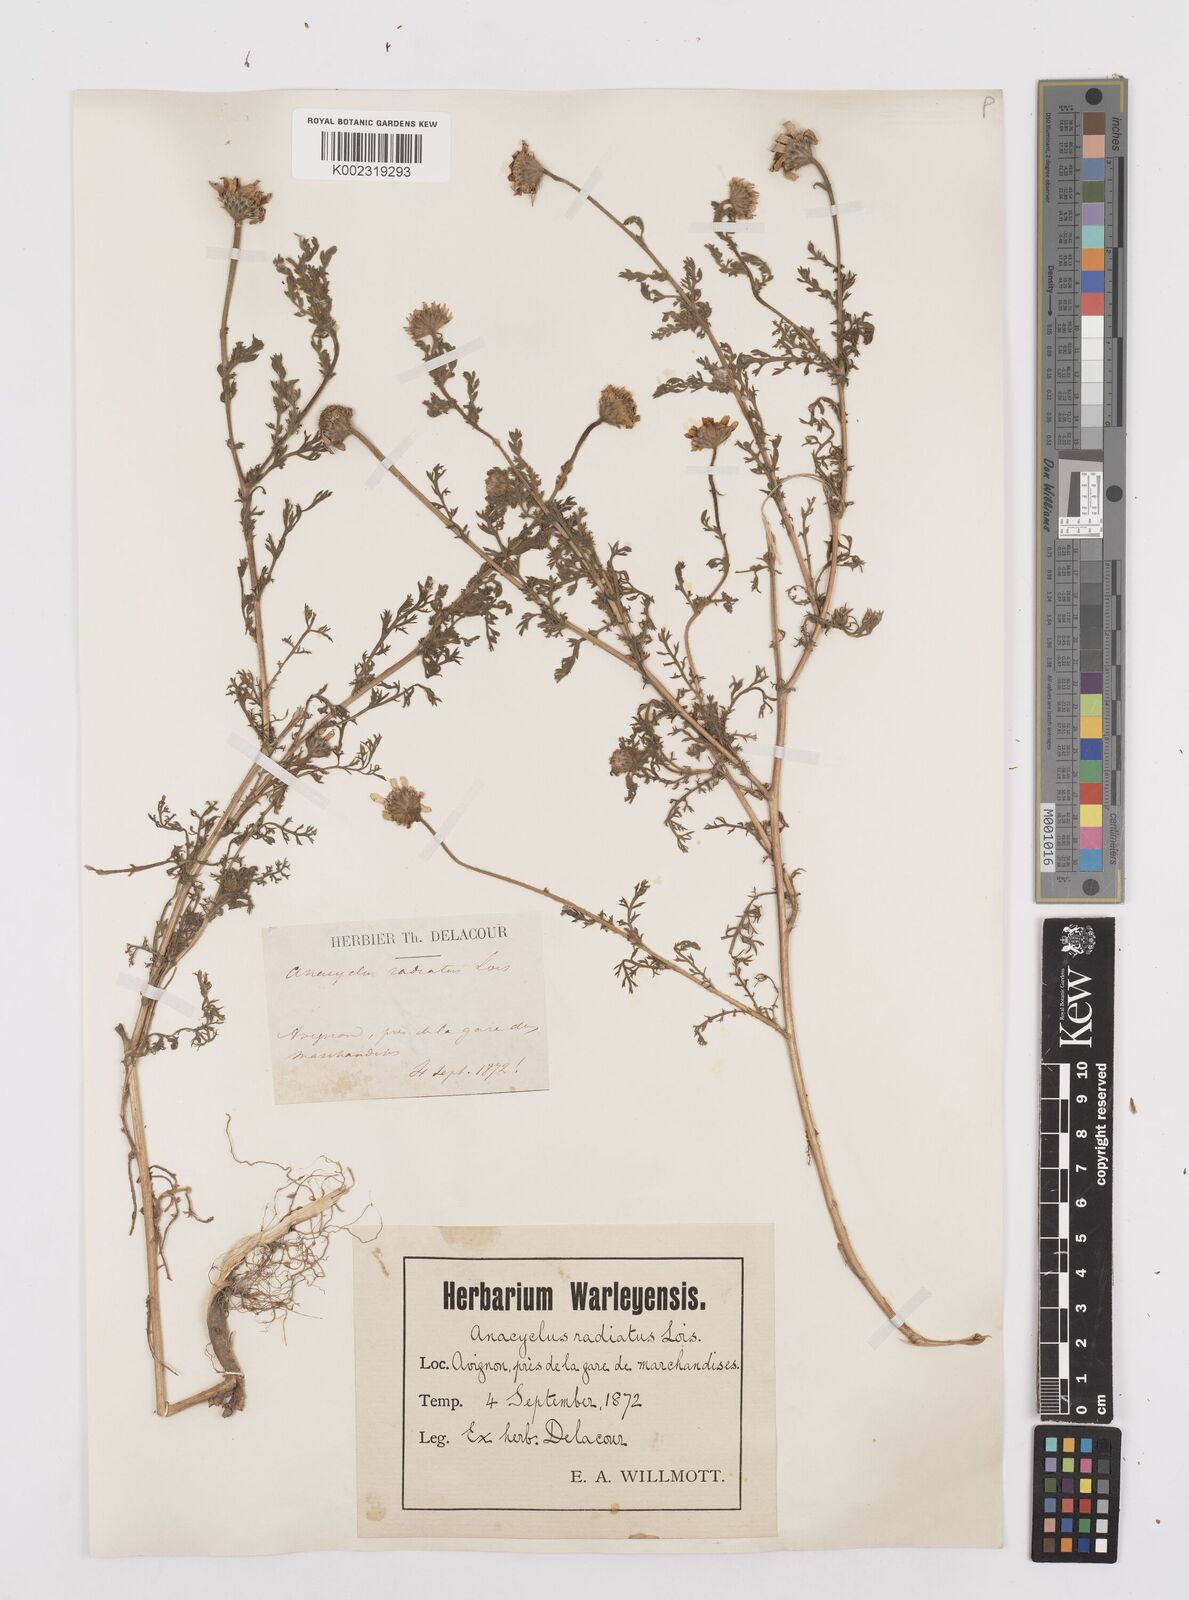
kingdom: Plantae
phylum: Tracheophyta
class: Magnoliopsida
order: Asterales
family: Asteraceae
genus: Anacyclus
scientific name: Anacyclus radiatus
